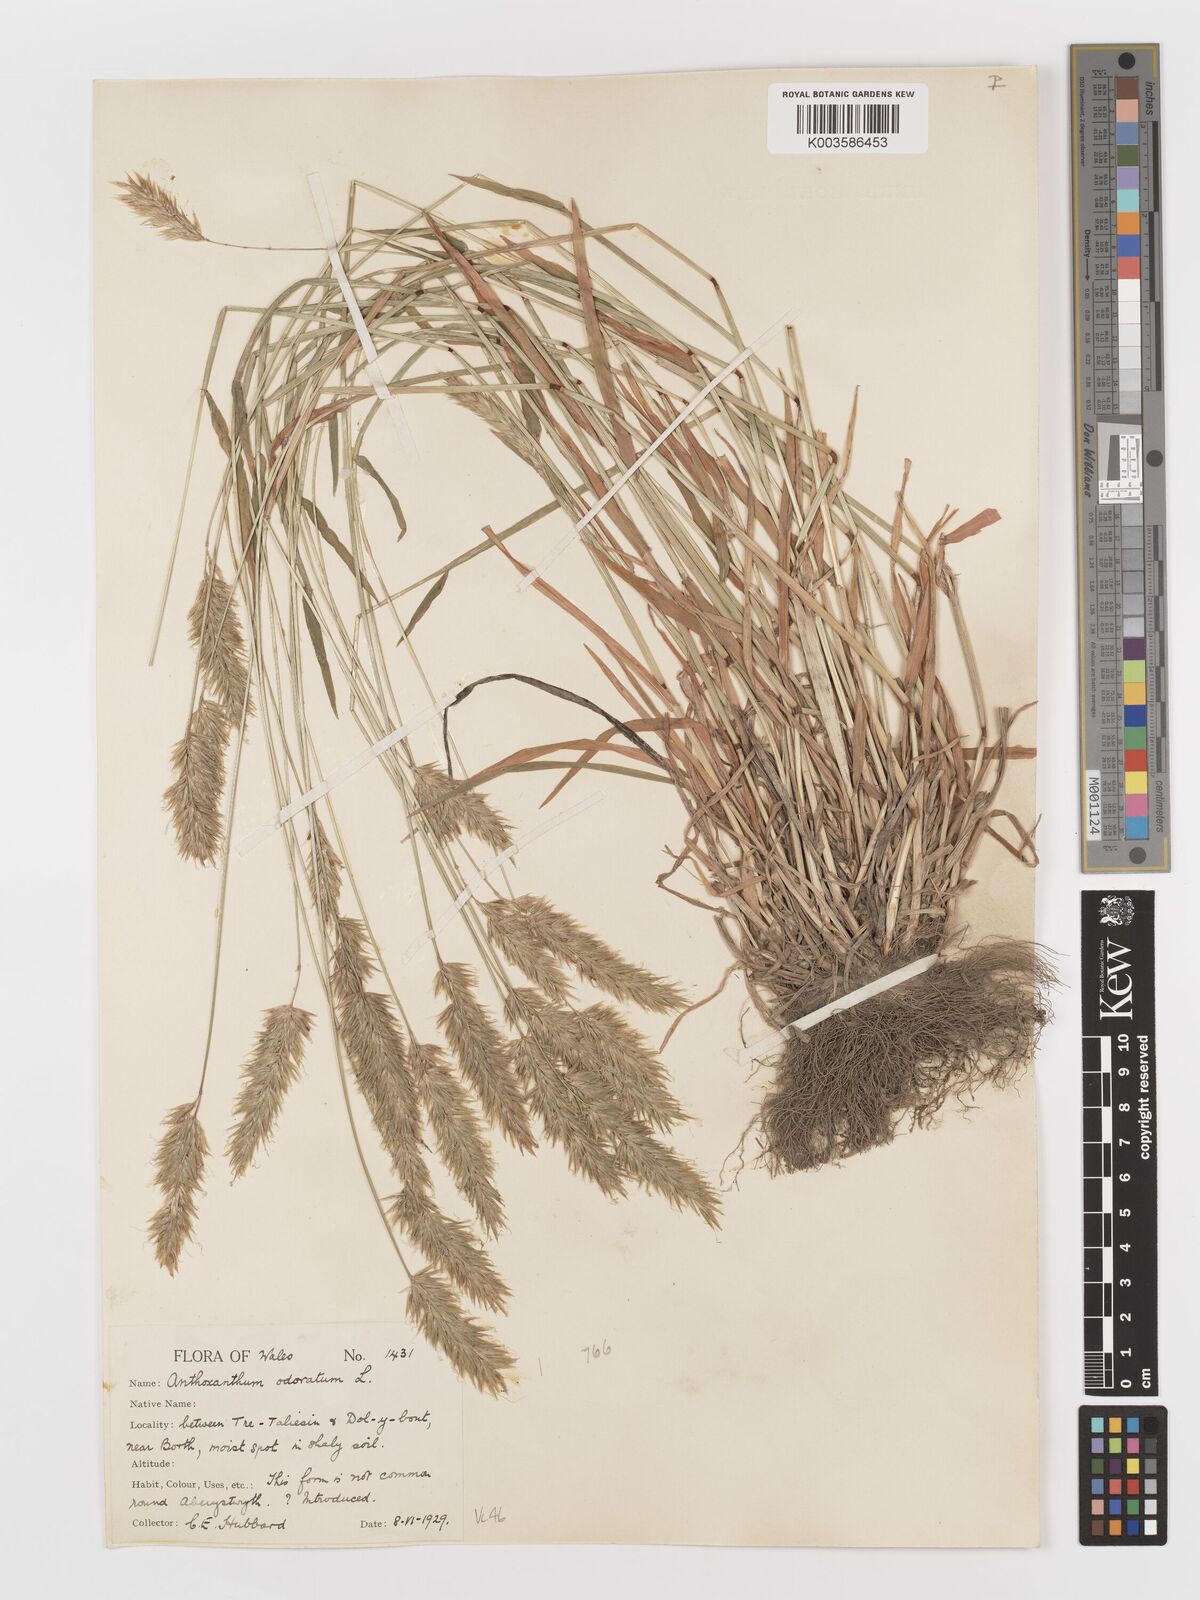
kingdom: Plantae
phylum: Tracheophyta
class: Liliopsida
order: Poales
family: Poaceae
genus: Anthoxanthum
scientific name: Anthoxanthum odoratum
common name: Sweet vernalgrass
